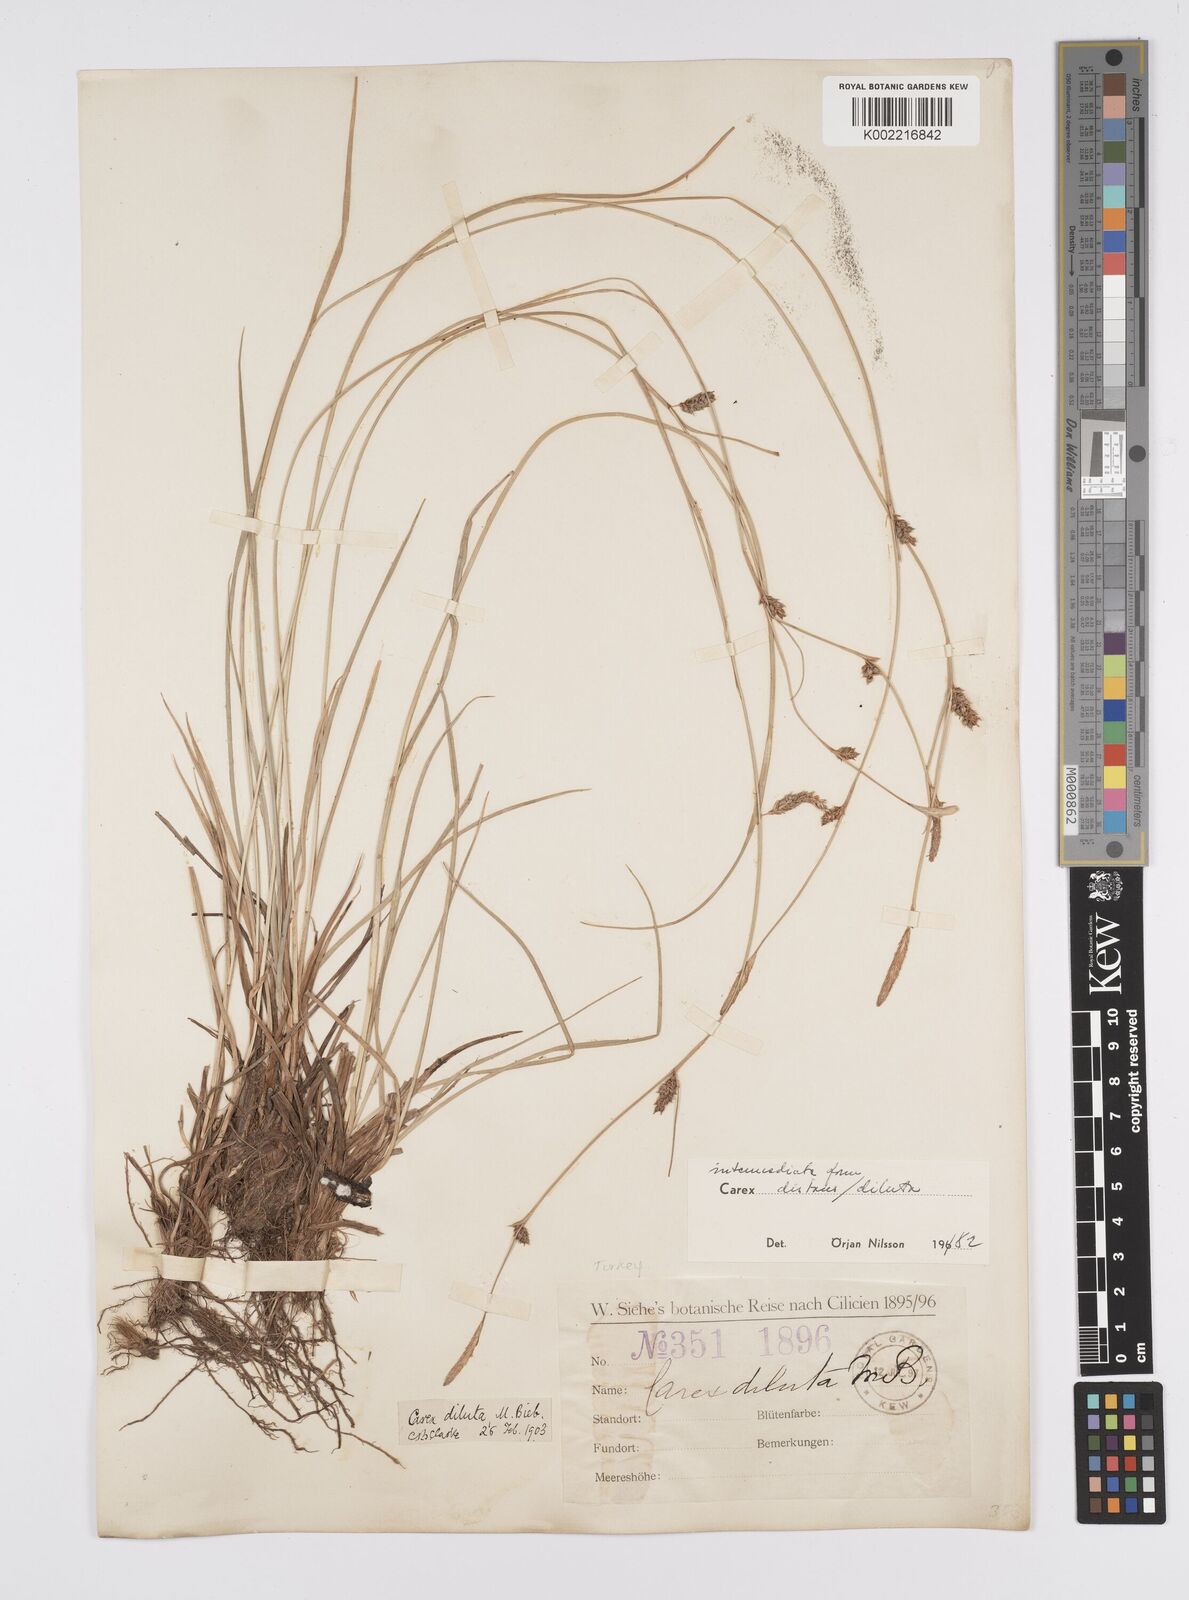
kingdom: Plantae
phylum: Tracheophyta
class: Liliopsida
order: Poales
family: Cyperaceae
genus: Carex
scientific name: Carex diluta
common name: Sedge
